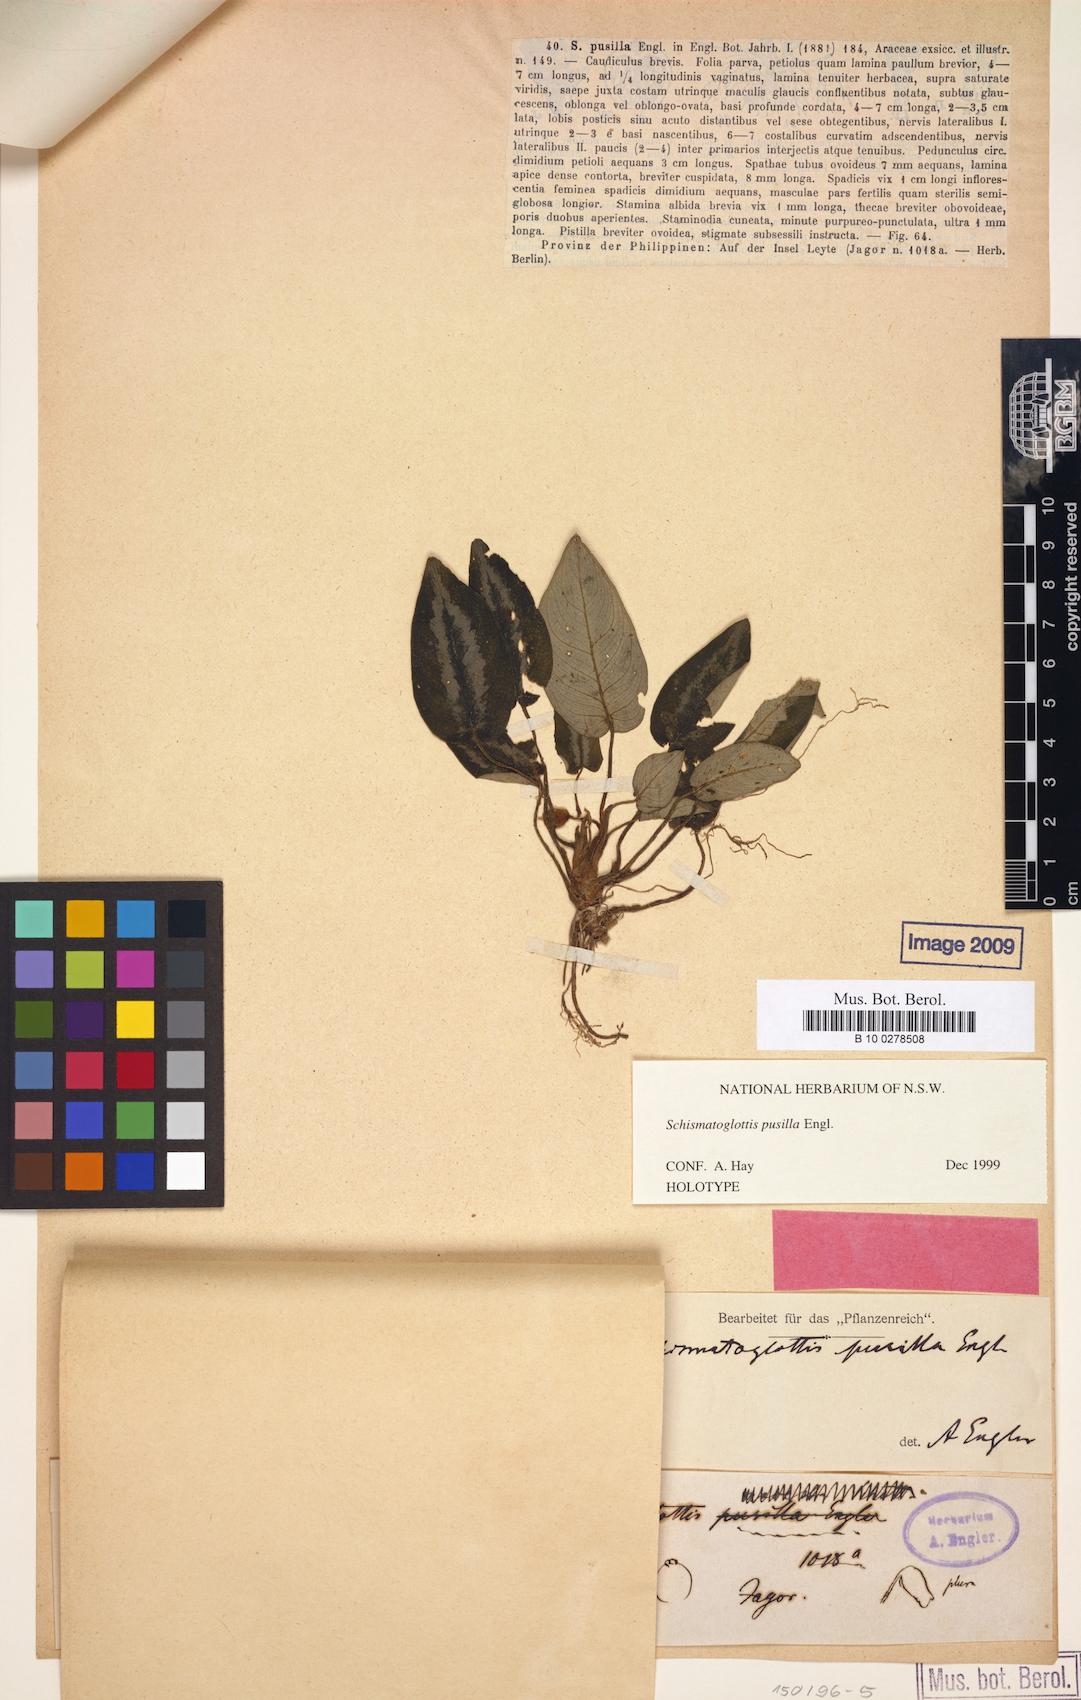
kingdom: Plantae
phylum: Tracheophyta
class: Liliopsida
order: Alismatales
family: Araceae
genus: Schismatoglottis
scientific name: Schismatoglottis pusilla
